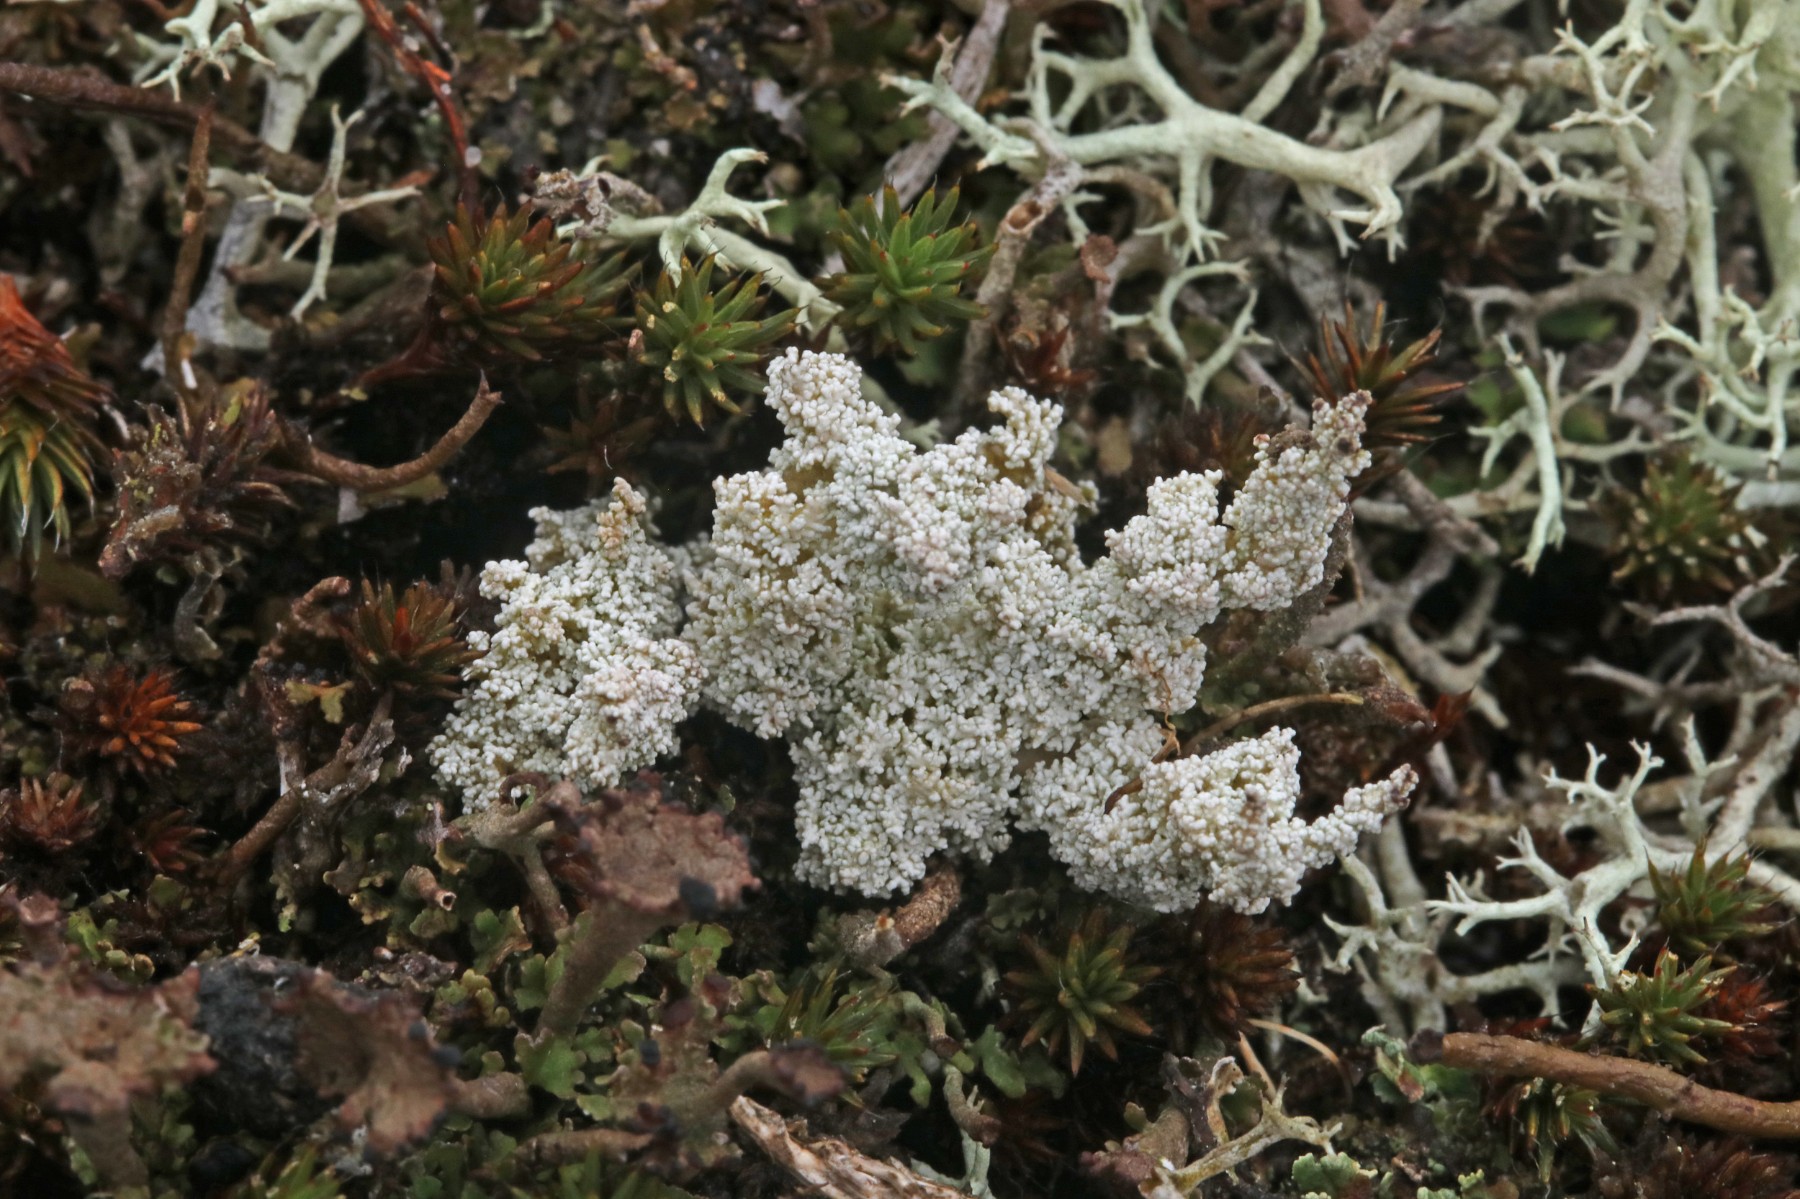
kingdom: Fungi
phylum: Ascomycota
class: Lecanoromycetes
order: Lecanorales
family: Stereocaulaceae
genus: Stereocaulon
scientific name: Stereocaulon saxatile
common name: klit-korallav
